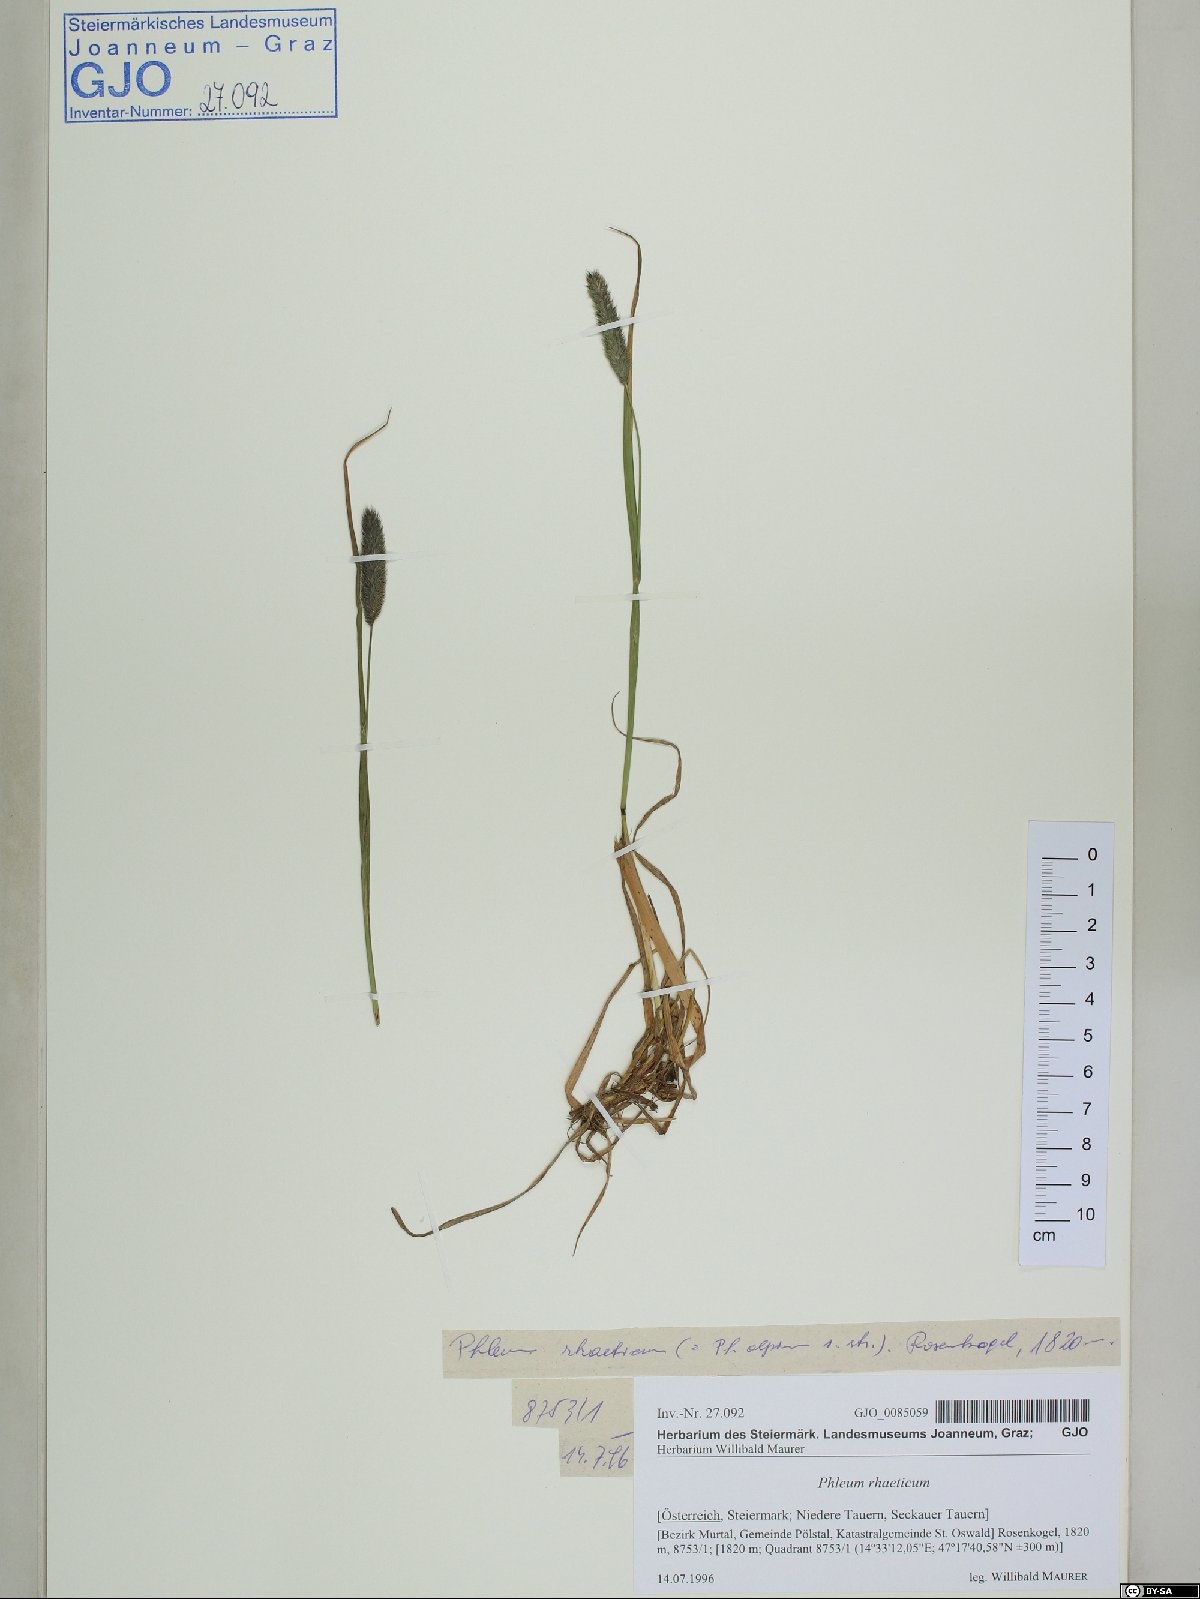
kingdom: Plantae
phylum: Tracheophyta
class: Liliopsida
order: Poales
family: Poaceae
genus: Phleum
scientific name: Phleum alpinum
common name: Alpine cat's-tail
